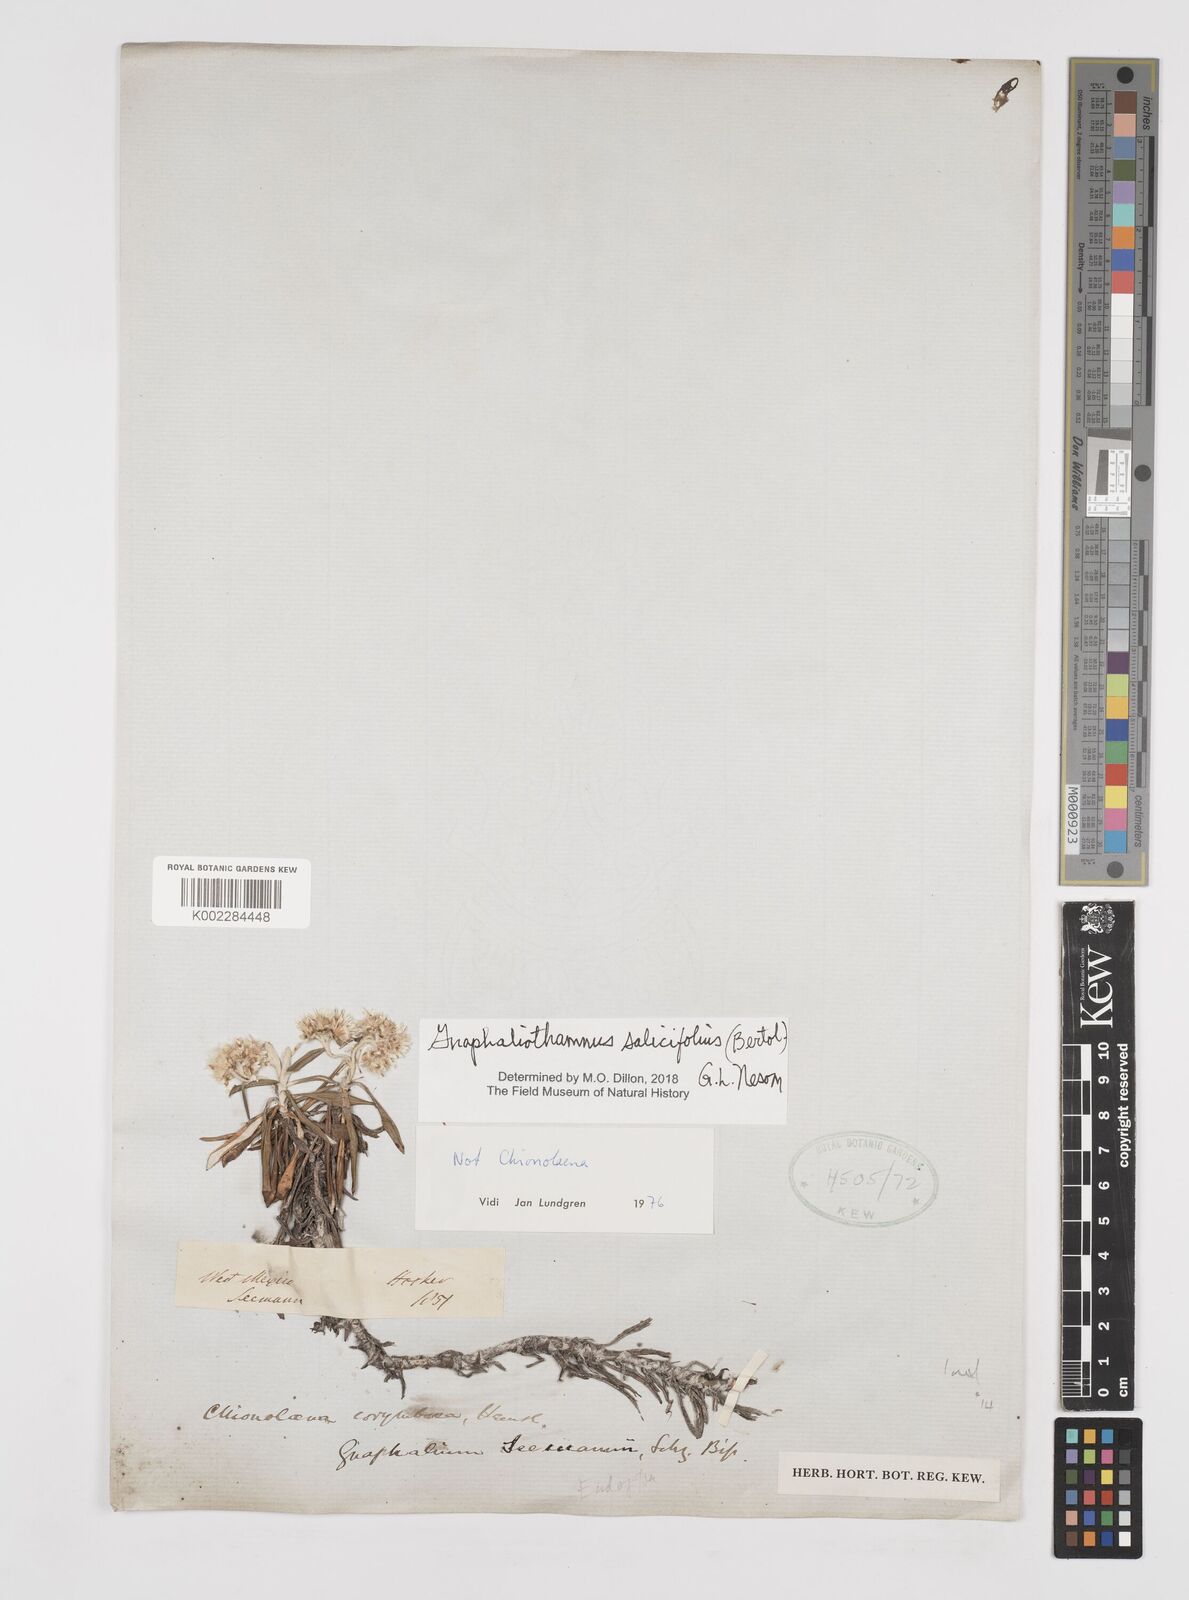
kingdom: Plantae
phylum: Tracheophyta
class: Magnoliopsida
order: Asterales
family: Asteraceae
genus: Gnaphaliothamnus
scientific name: Gnaphaliothamnus salicifolius
